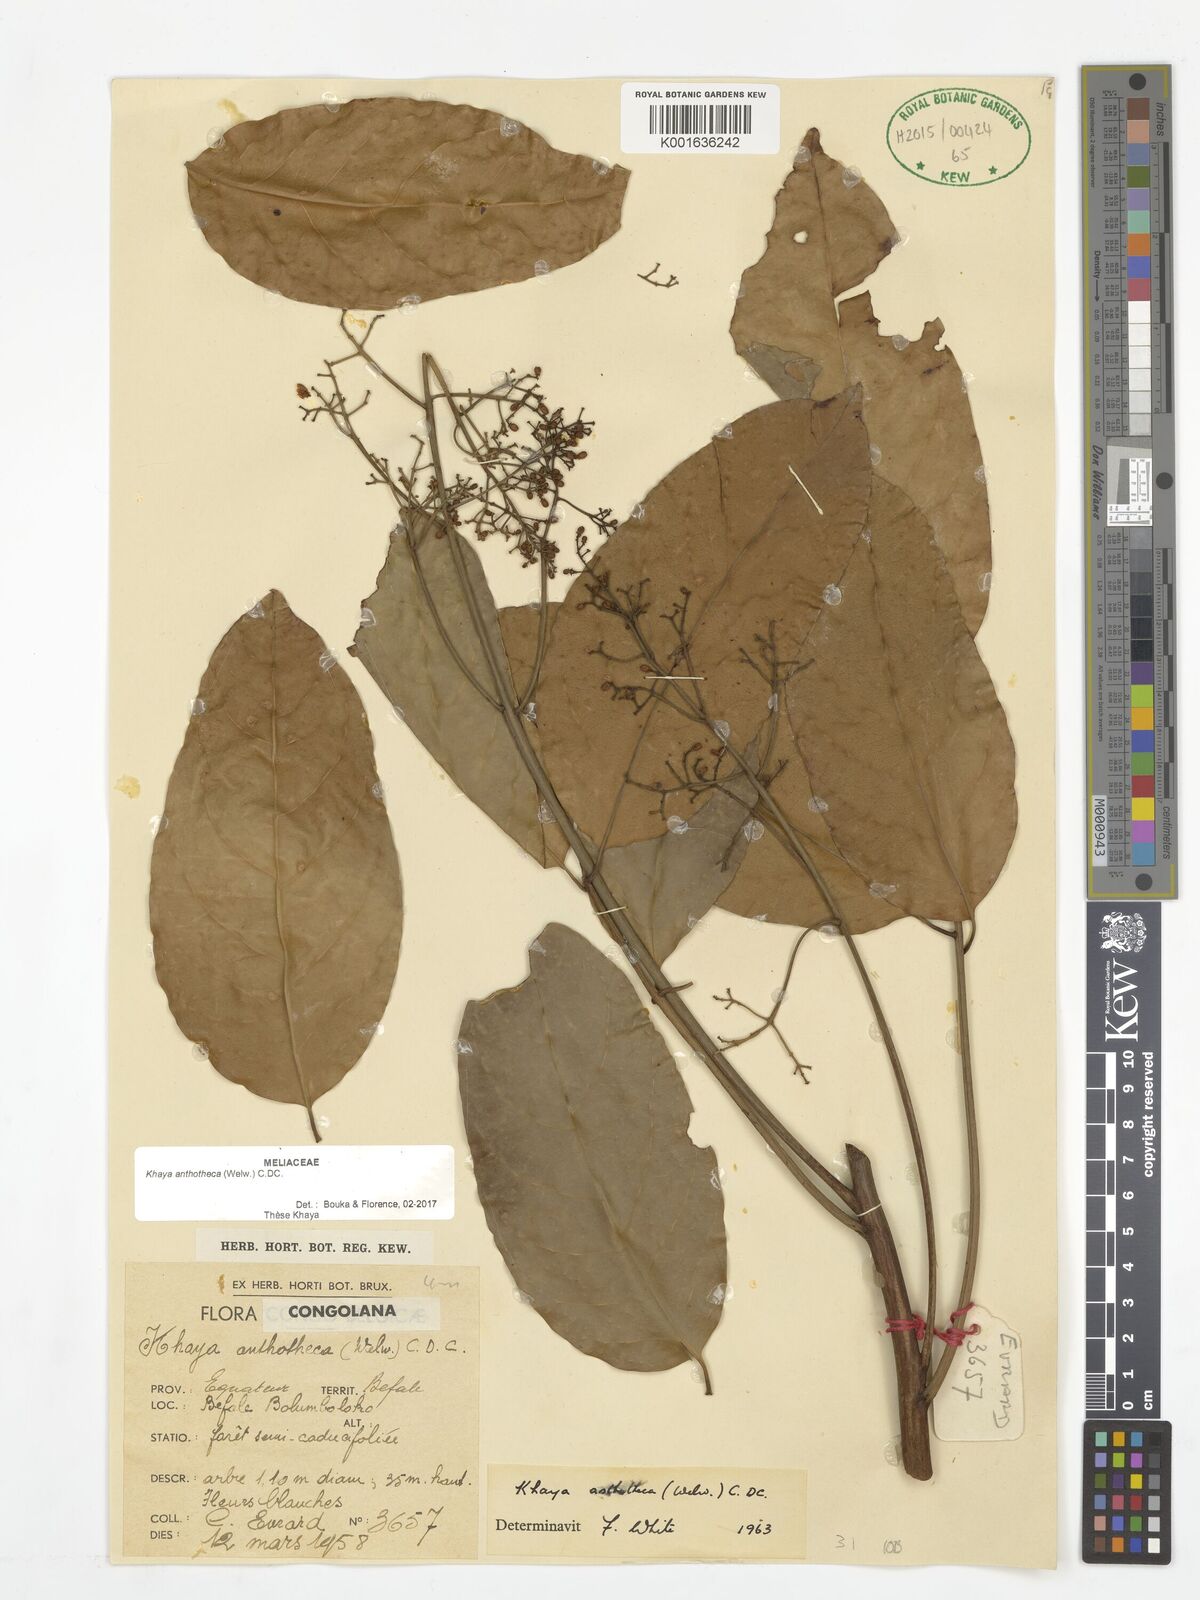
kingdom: Plantae
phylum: Tracheophyta
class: Magnoliopsida
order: Sapindales
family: Meliaceae
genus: Khaya
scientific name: Khaya anthotheca
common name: Nyasaland mahogany
